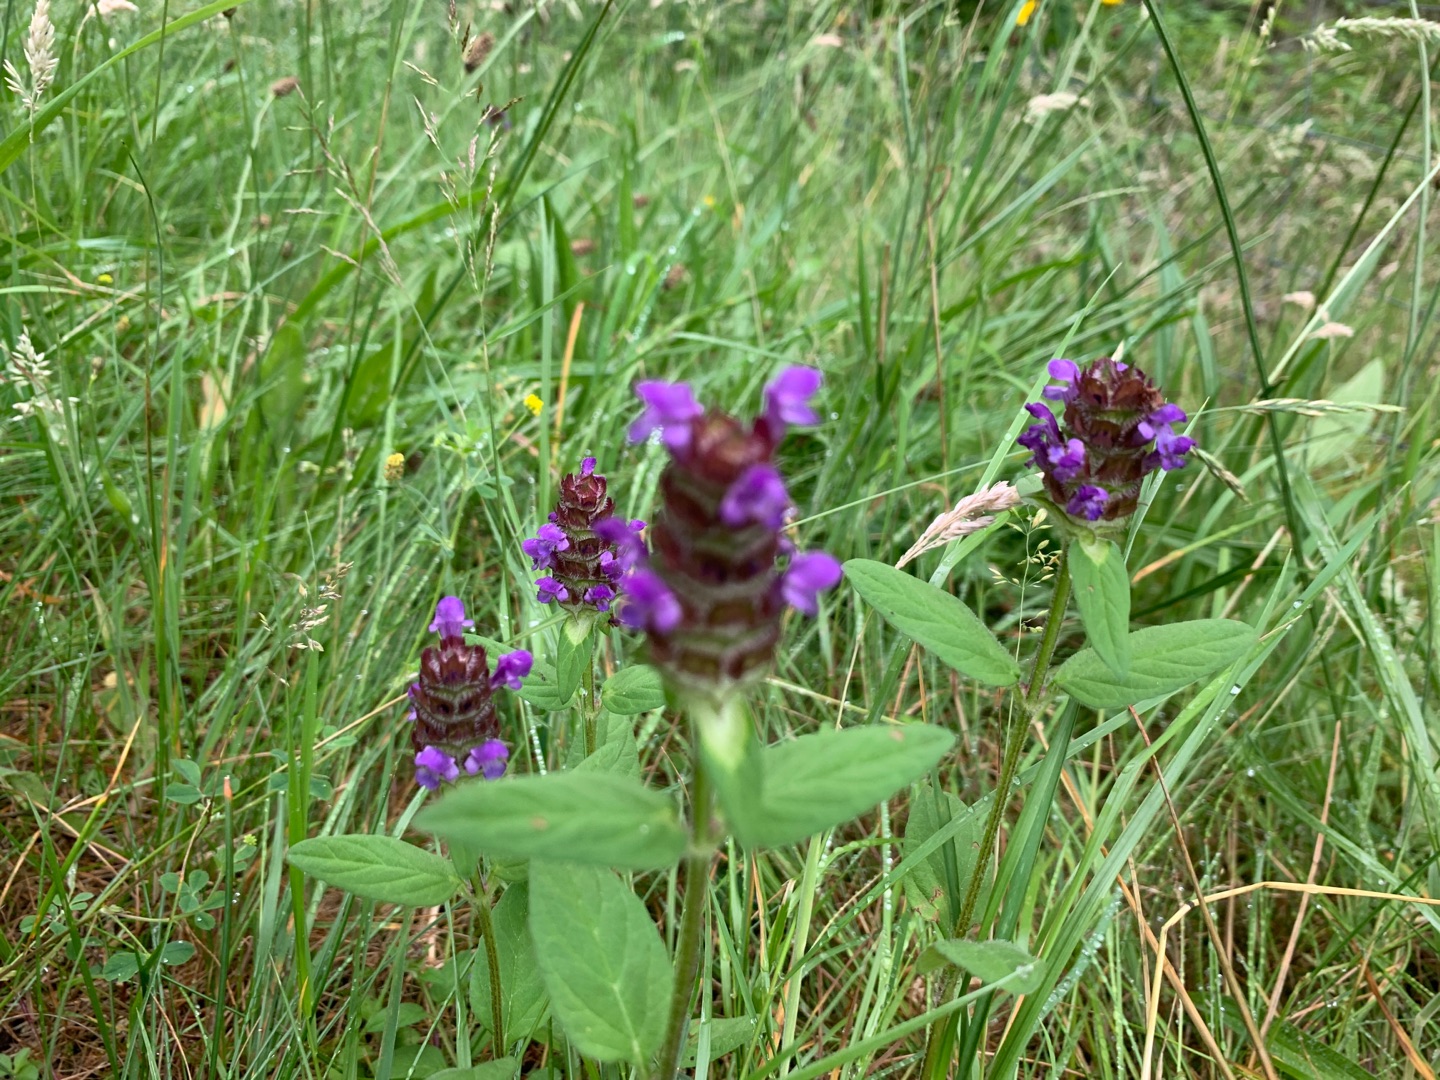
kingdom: Plantae
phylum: Tracheophyta
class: Magnoliopsida
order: Lamiales
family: Lamiaceae
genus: Prunella
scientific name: Prunella vulgaris
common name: Almindelig brunelle
